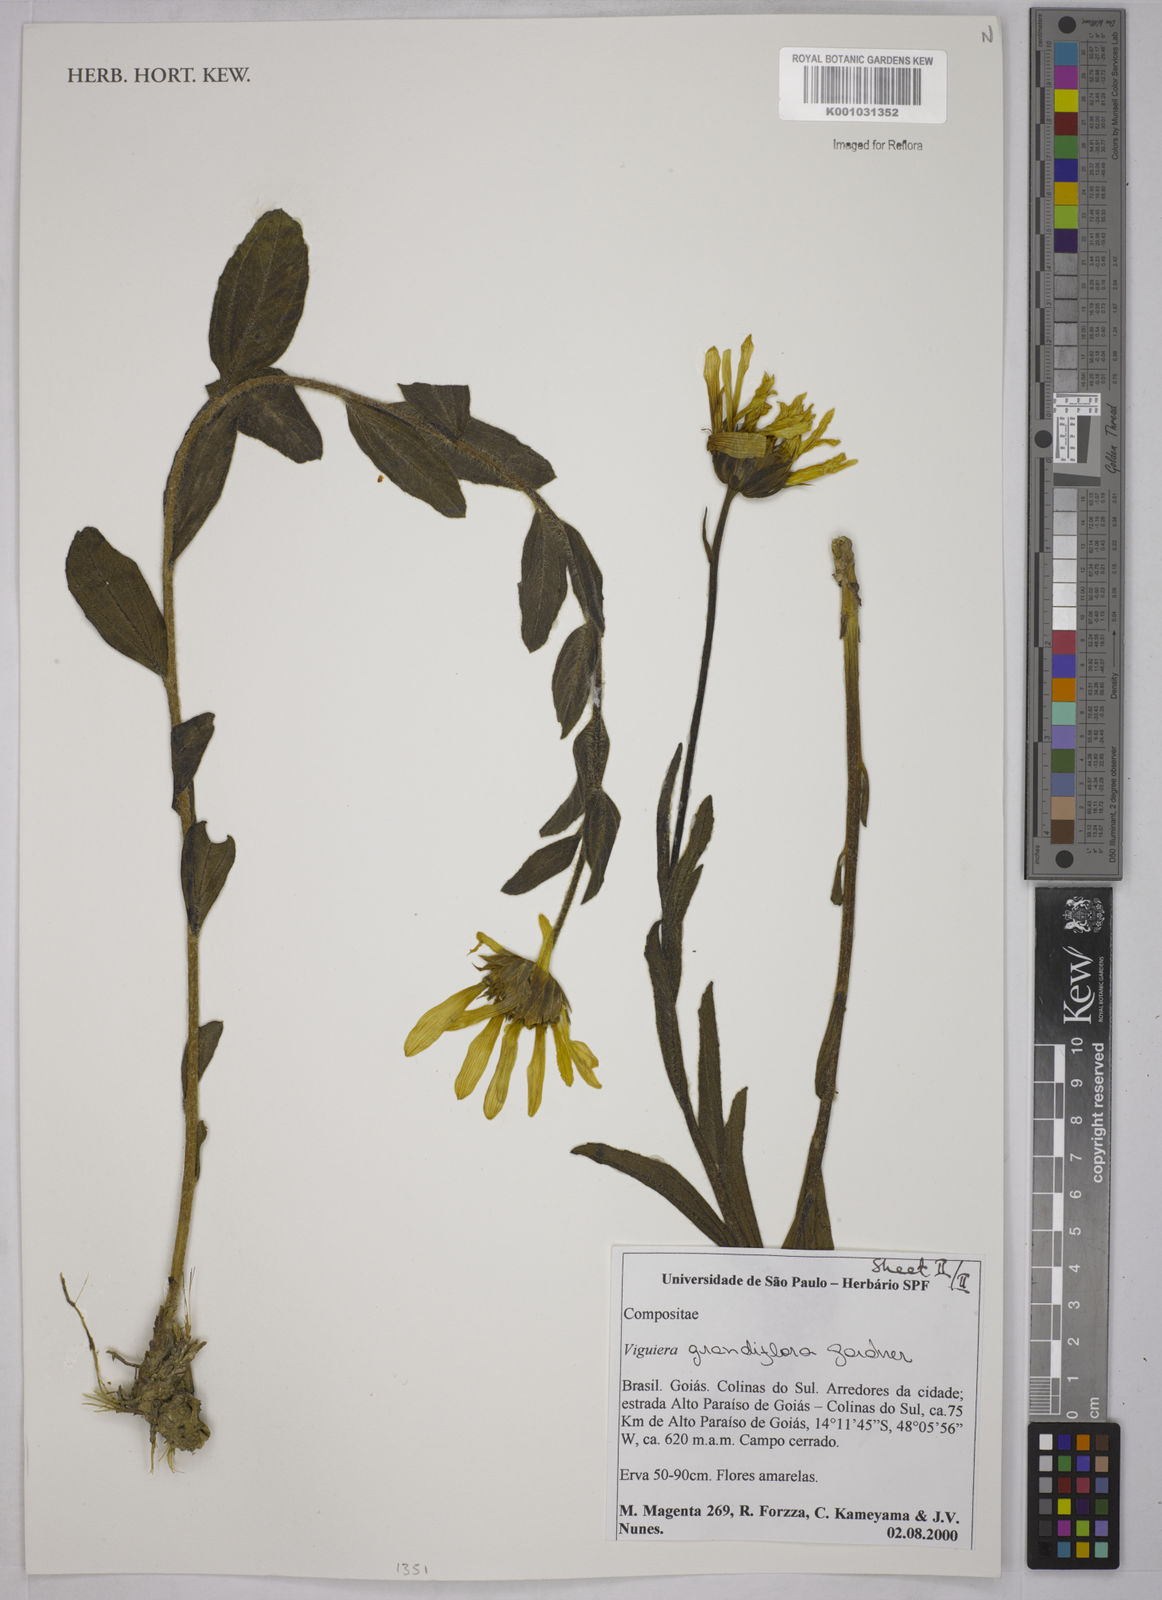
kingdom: Plantae
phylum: Tracheophyta
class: Magnoliopsida
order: Asterales
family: Asteraceae
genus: Aldama
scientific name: Aldama grandiflora
